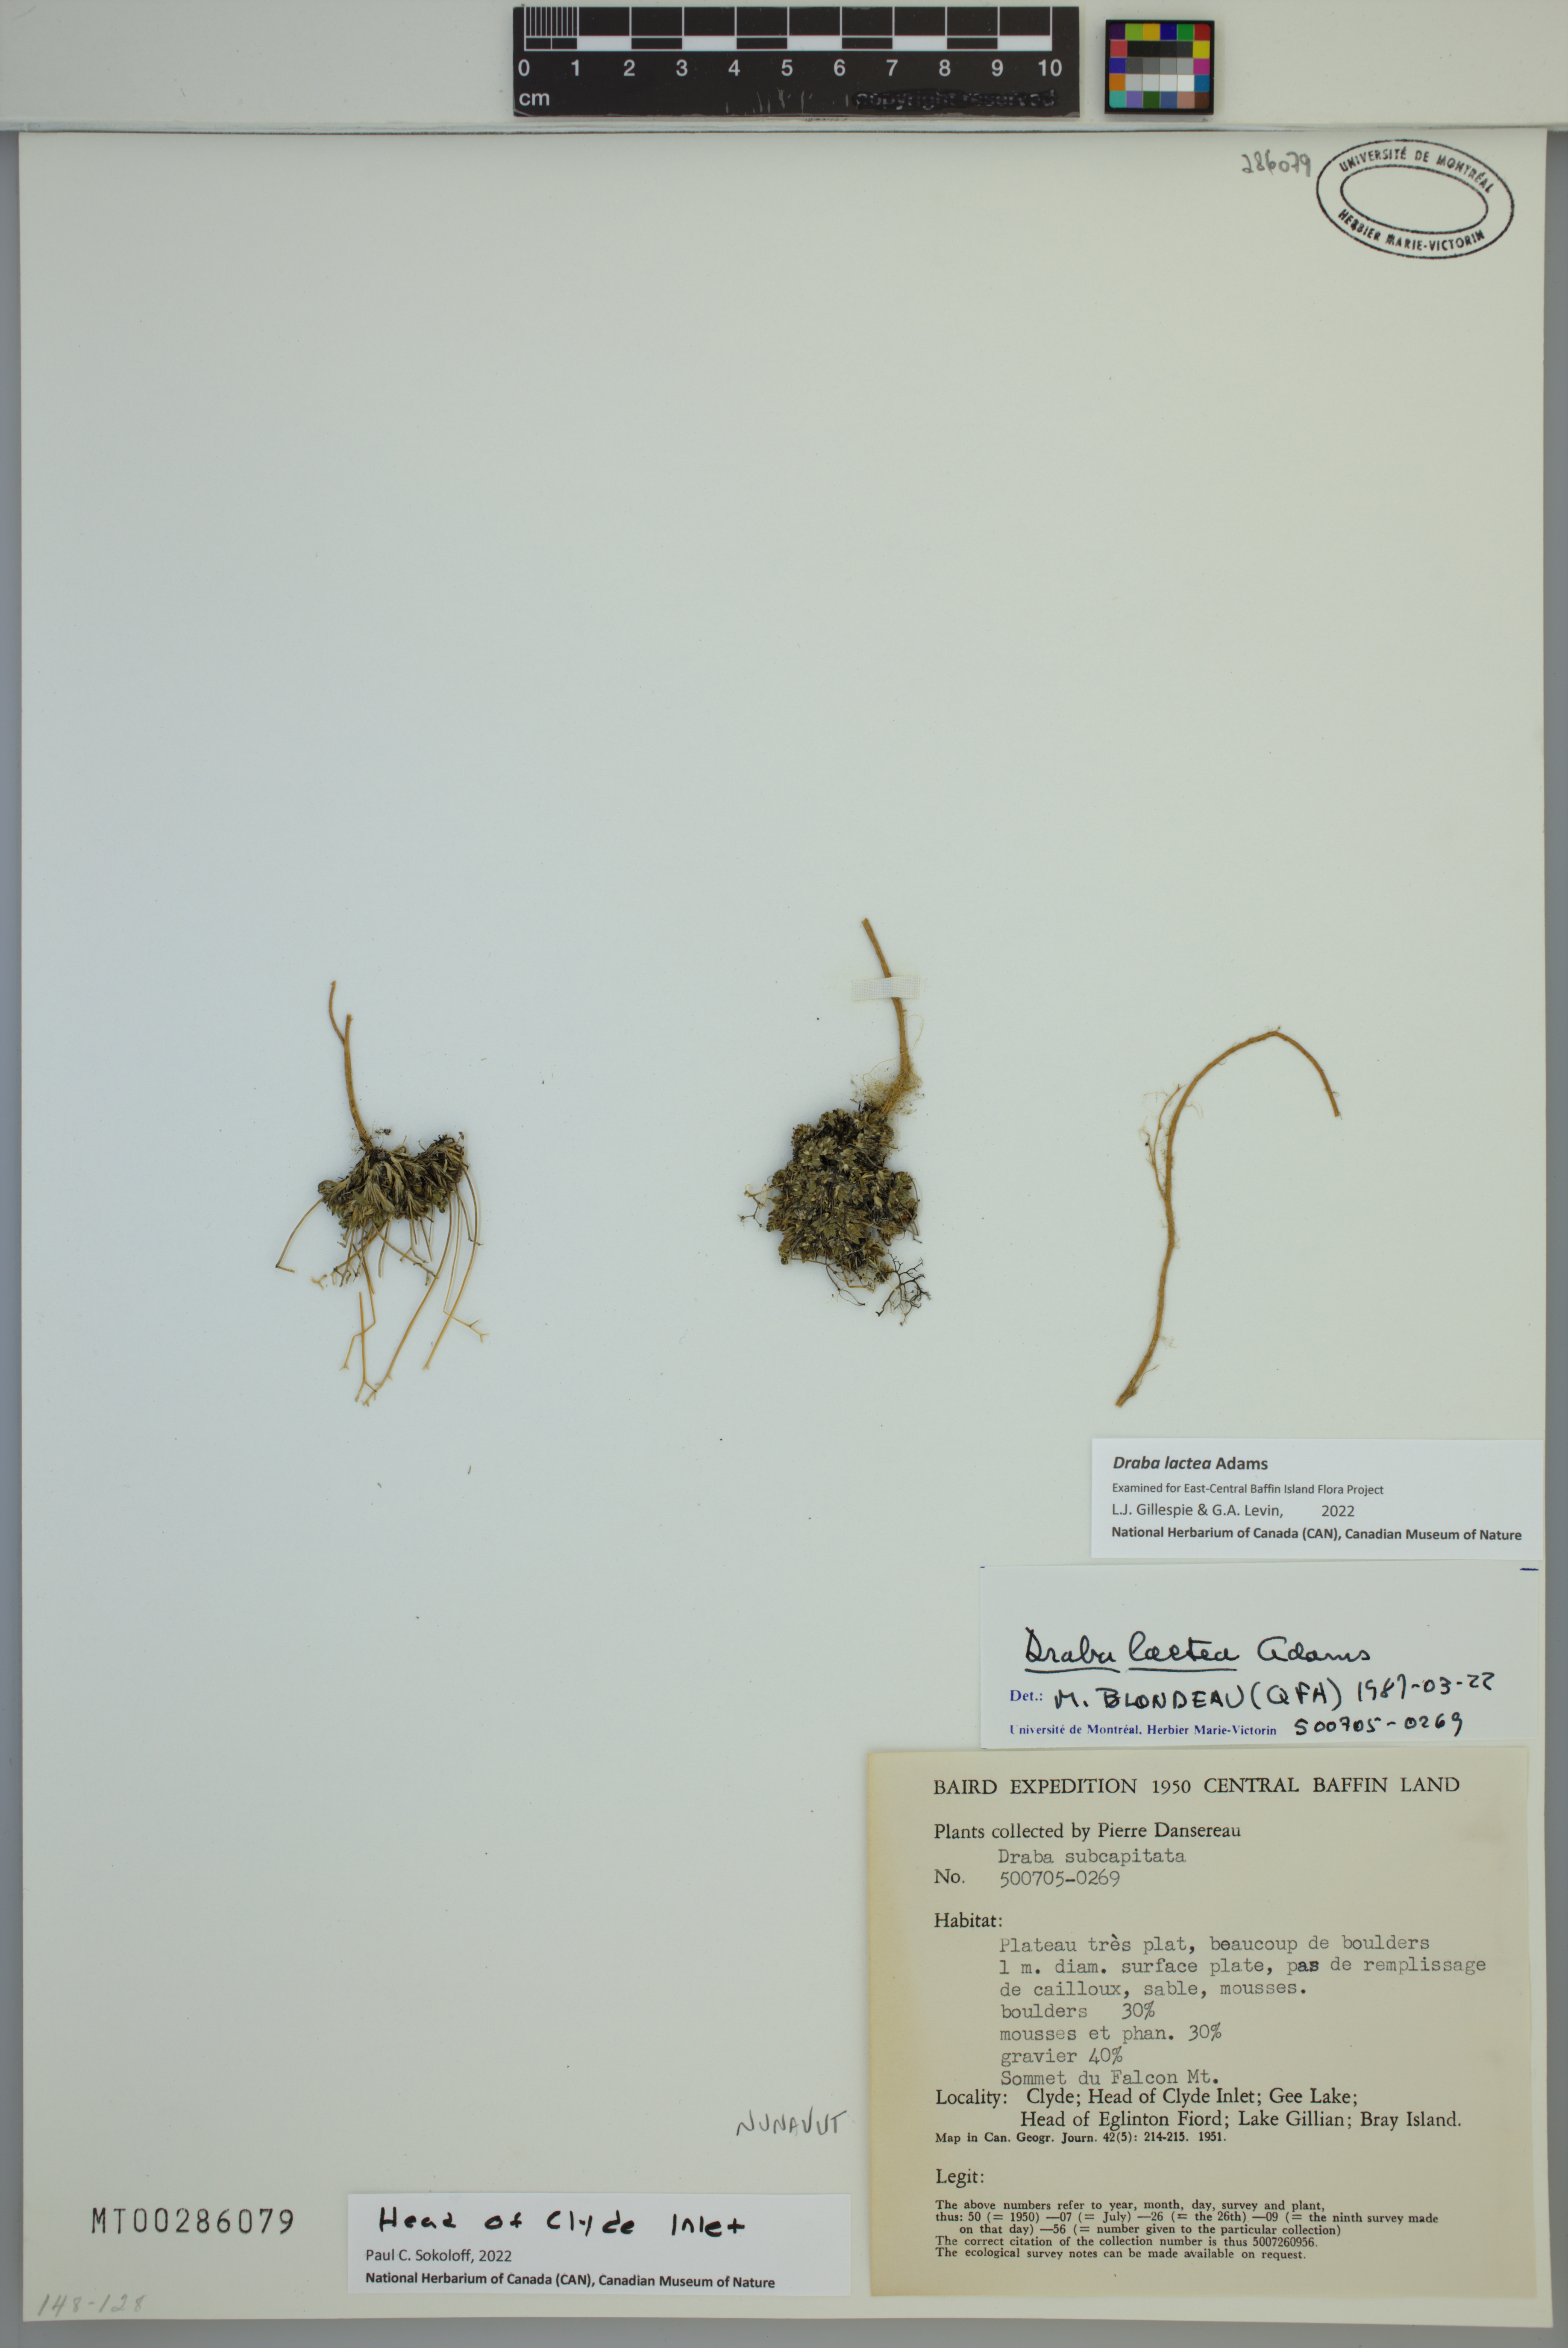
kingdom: Plantae
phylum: Tracheophyta
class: Magnoliopsida
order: Brassicales
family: Brassicaceae
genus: Draba
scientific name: Draba lactea
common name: Milky draba
